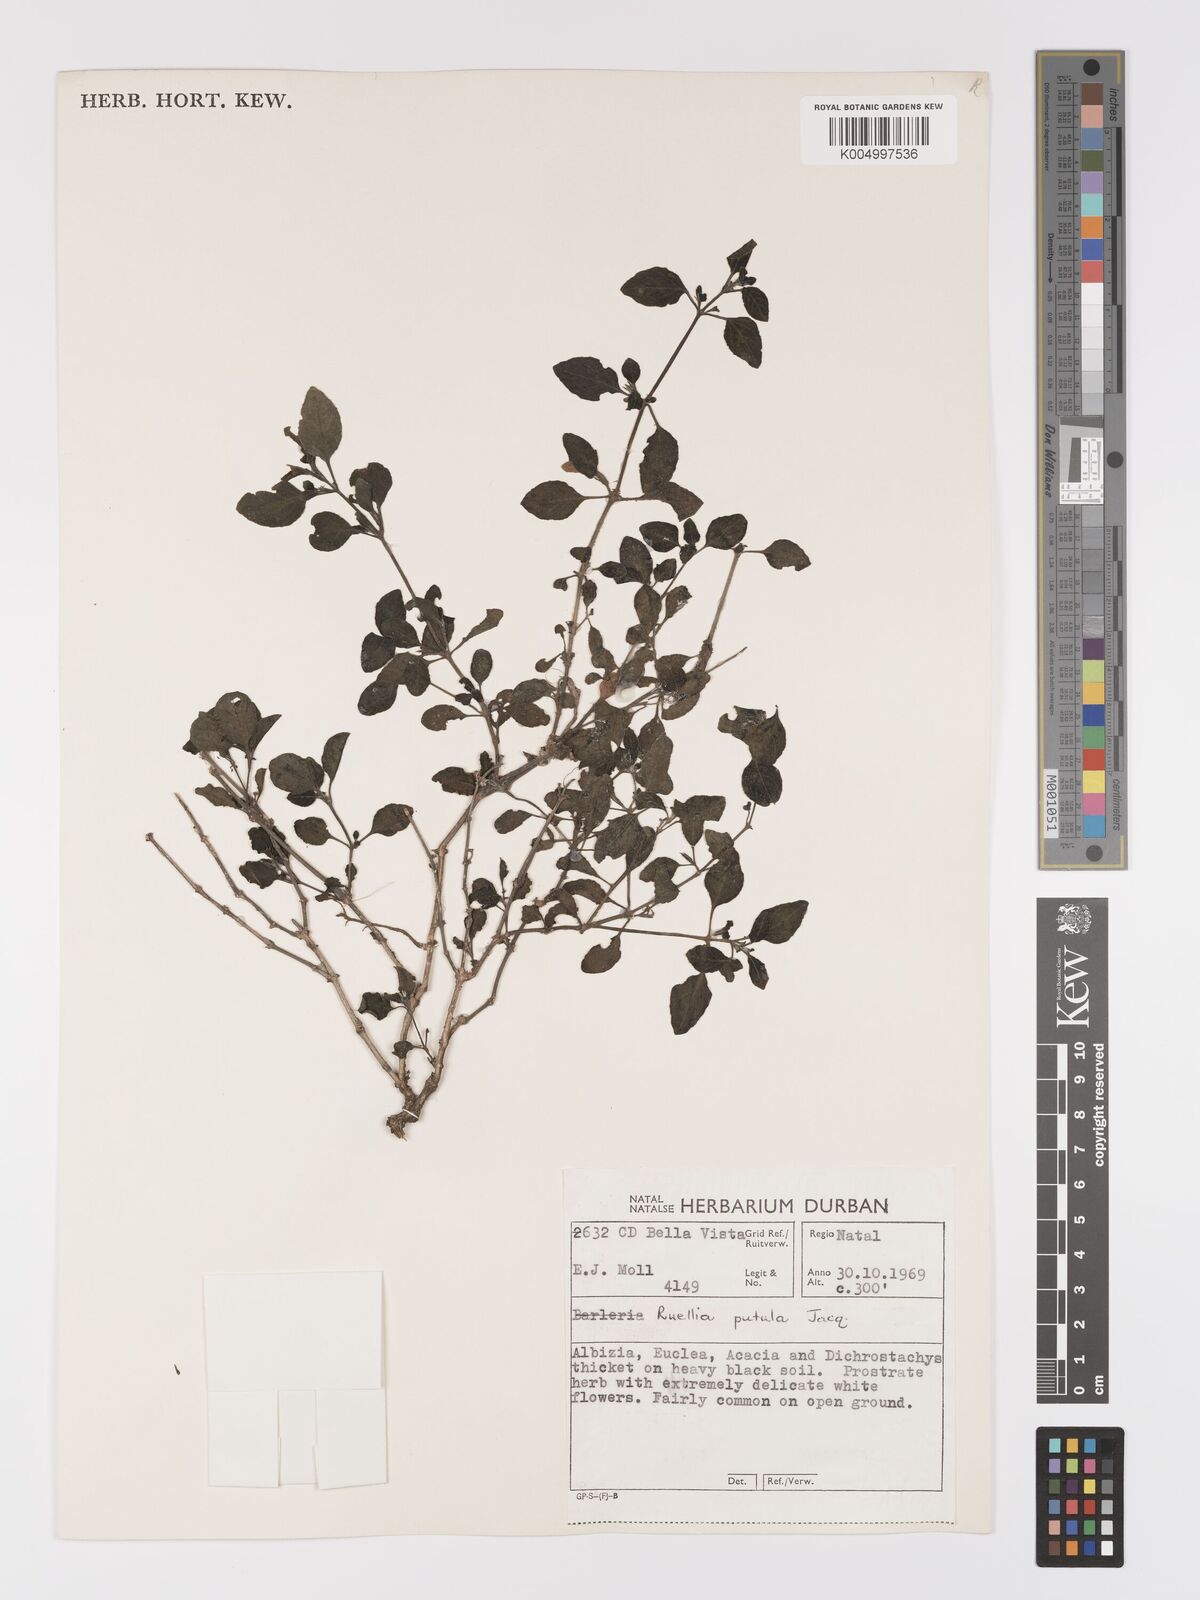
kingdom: Plantae
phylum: Tracheophyta
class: Magnoliopsida
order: Lamiales
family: Acanthaceae
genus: Ruellia
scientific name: Ruellia patula
